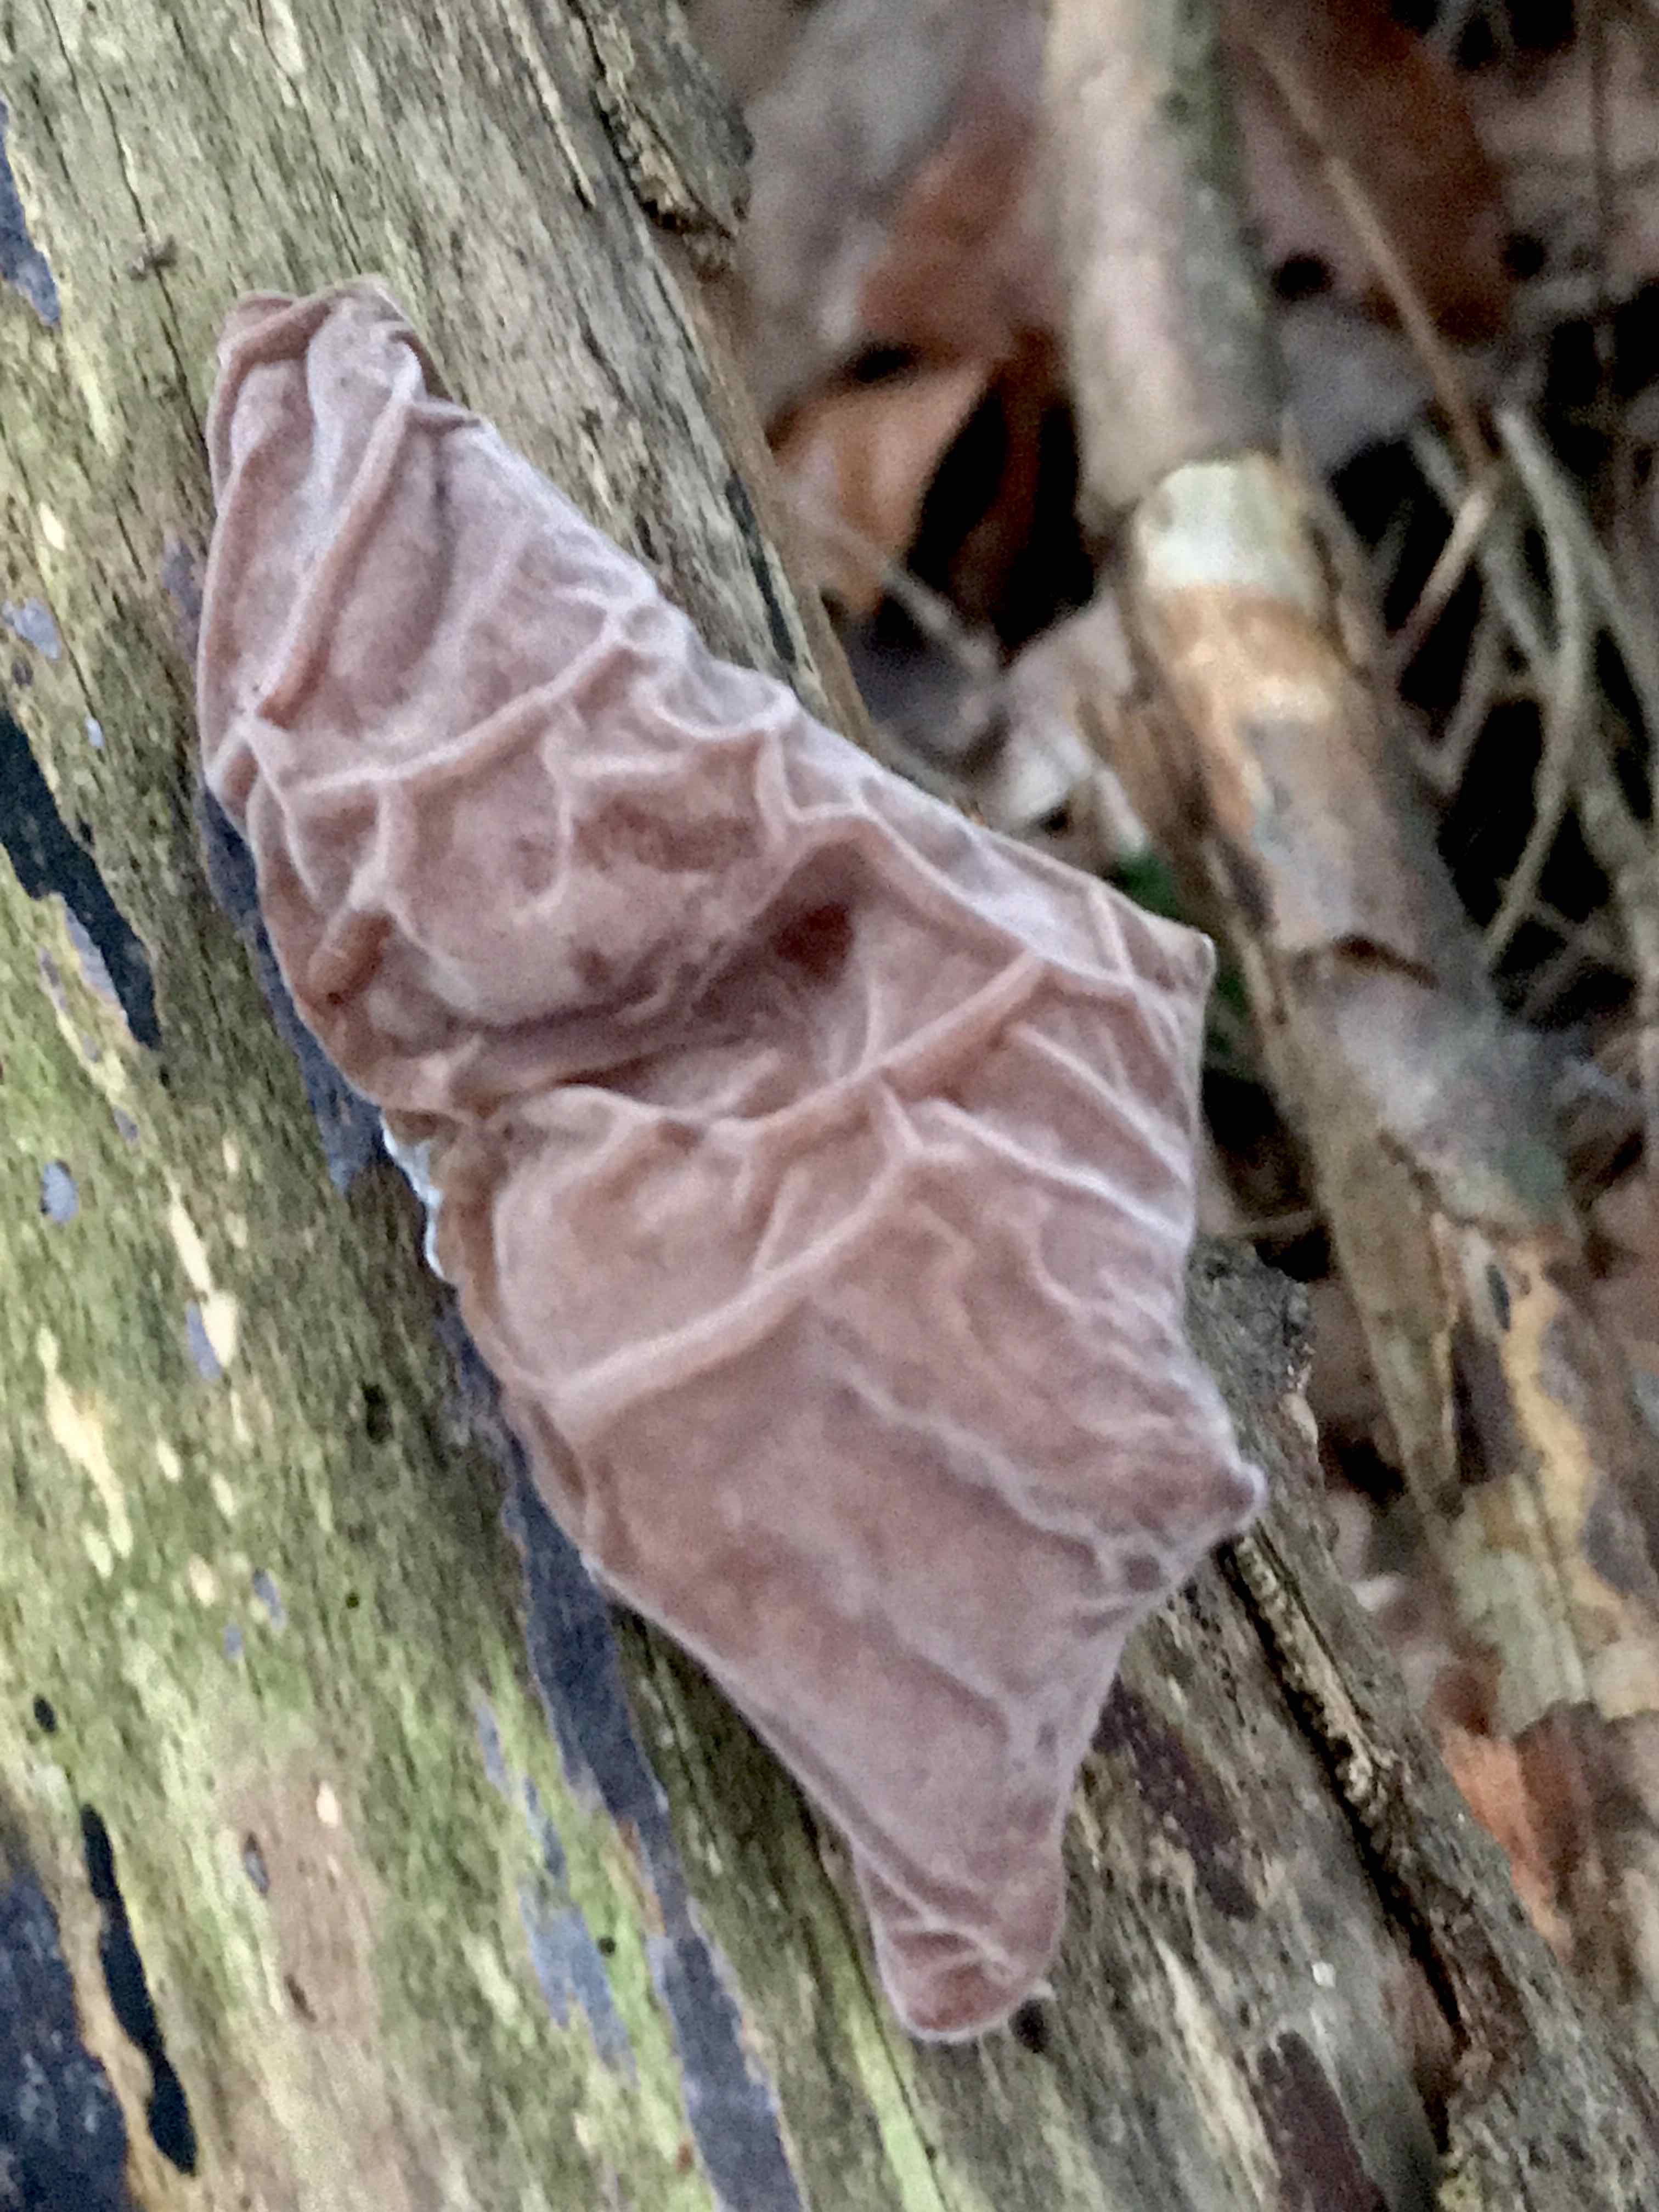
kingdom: Fungi
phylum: Basidiomycota
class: Agaricomycetes
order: Auriculariales
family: Auriculariaceae
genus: Auricularia
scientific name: Auricularia auricula-judae
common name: almindelig judasøre
